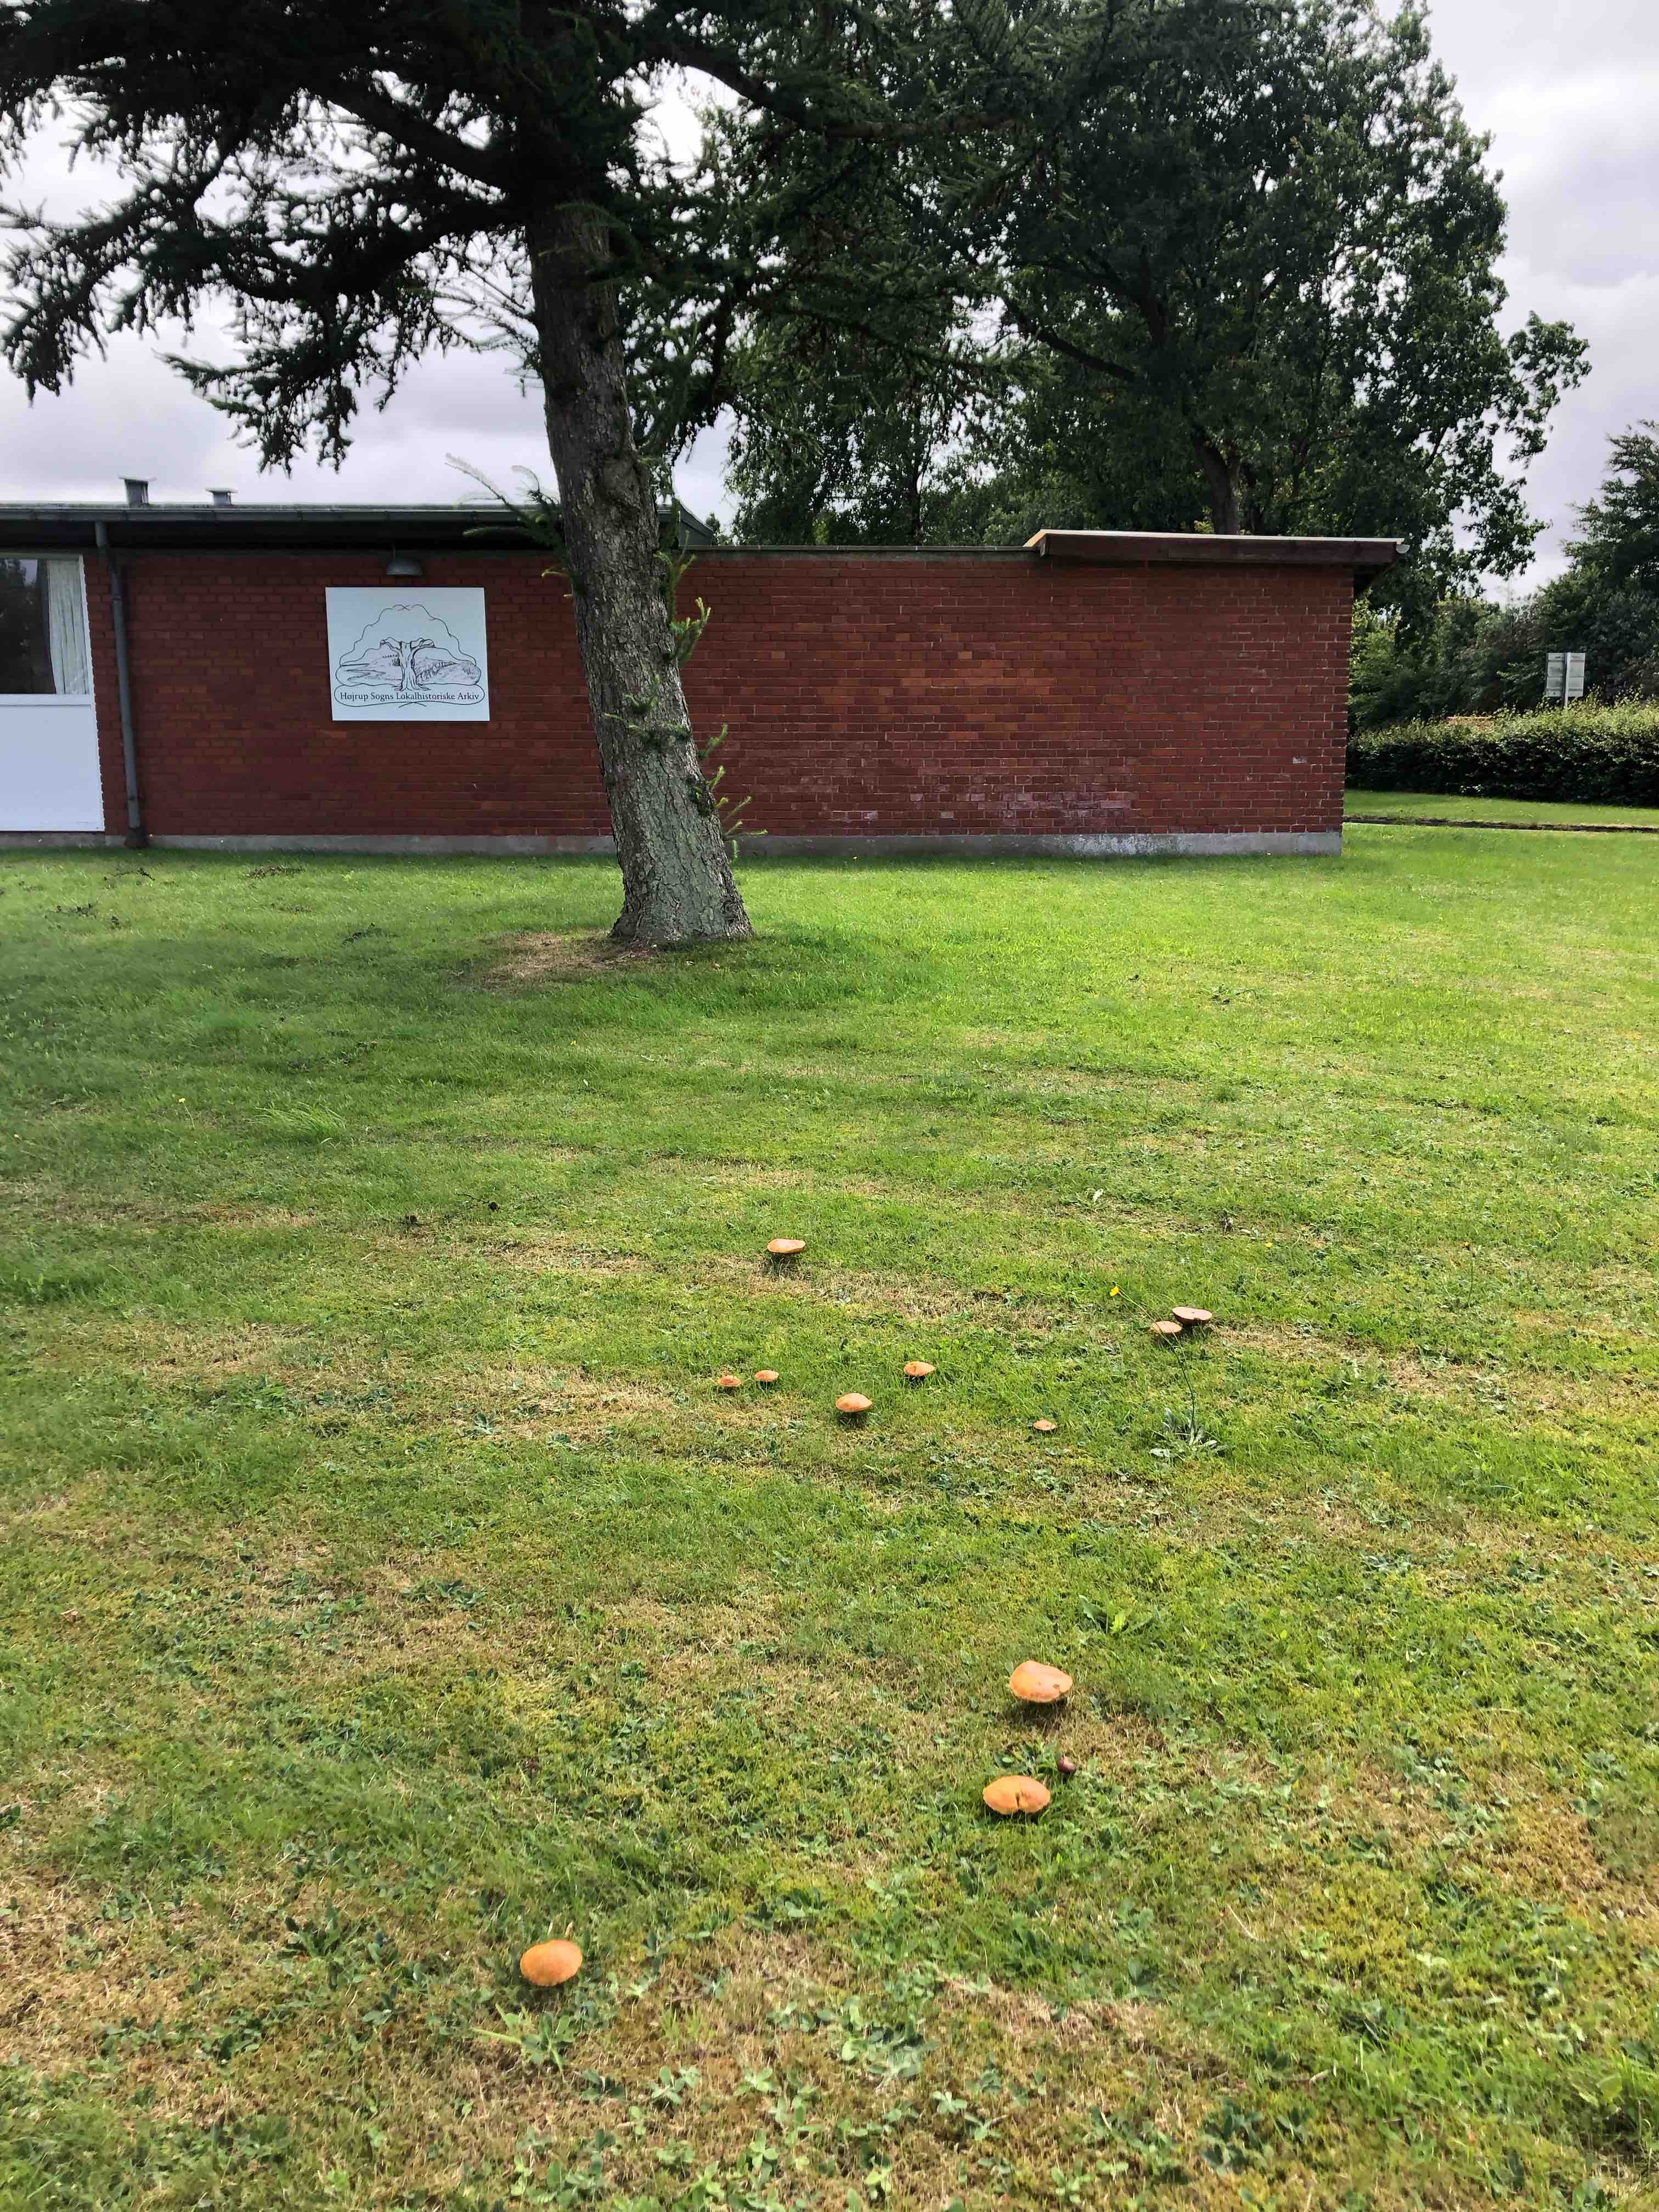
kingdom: Fungi
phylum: Basidiomycota
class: Agaricomycetes
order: Boletales
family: Suillaceae
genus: Suillus
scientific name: Suillus grevillei
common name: lærke-slimrørhat
